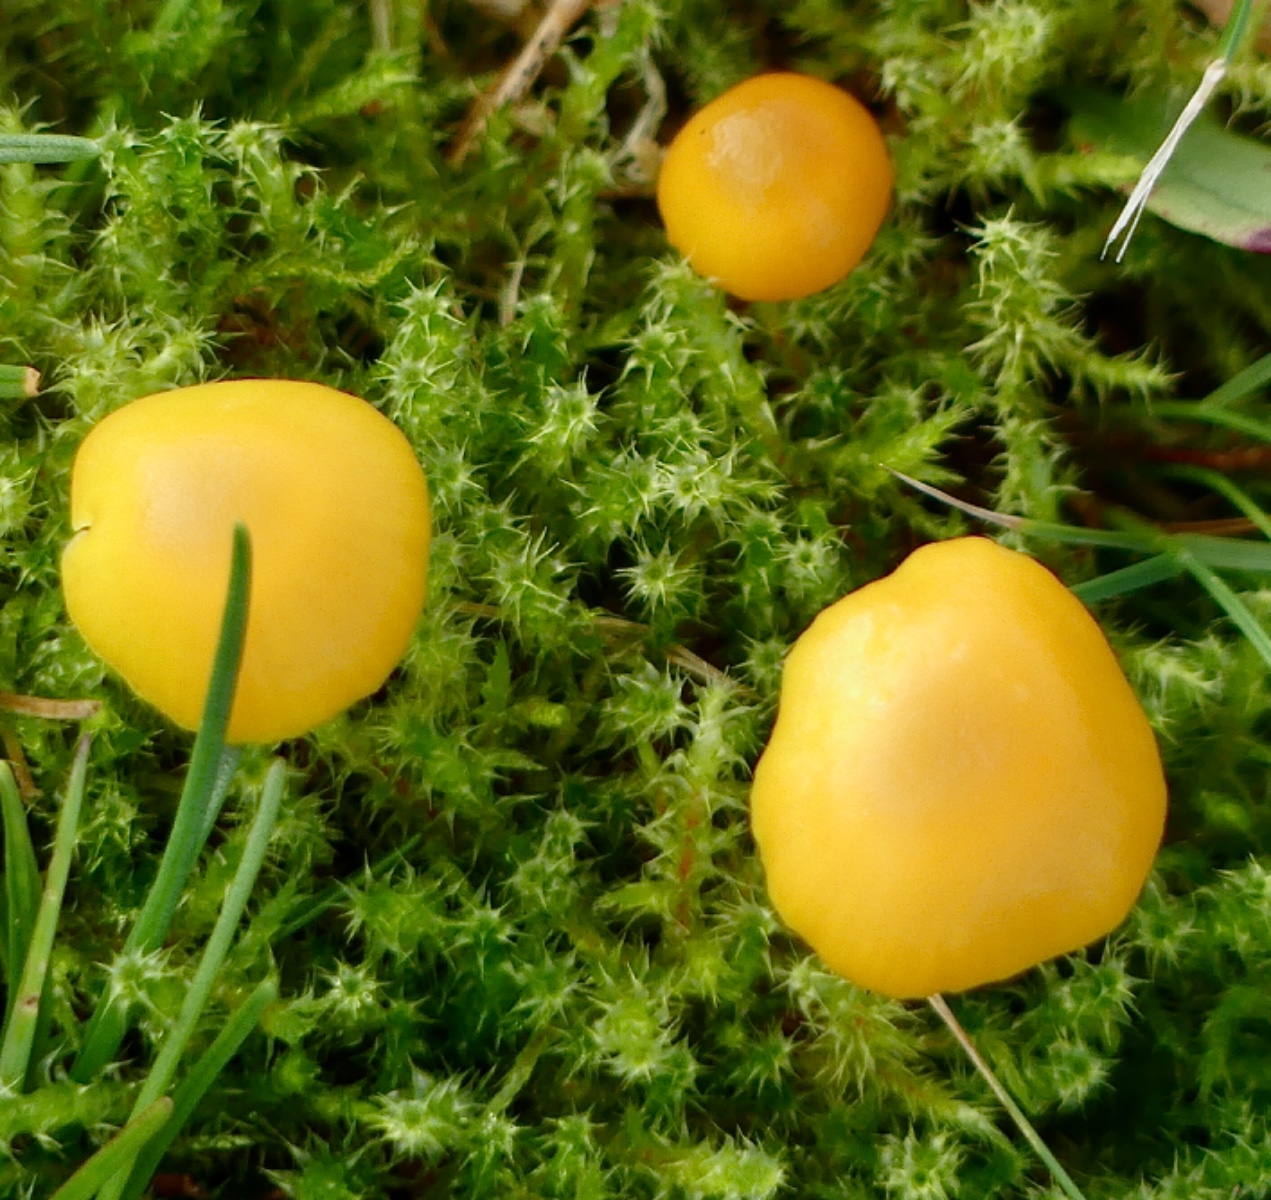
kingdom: Fungi
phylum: Basidiomycota
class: Agaricomycetes
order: Agaricales
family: Hygrophoraceae
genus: Hygrocybe
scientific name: Hygrocybe ceracea
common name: voksgul vokshat
